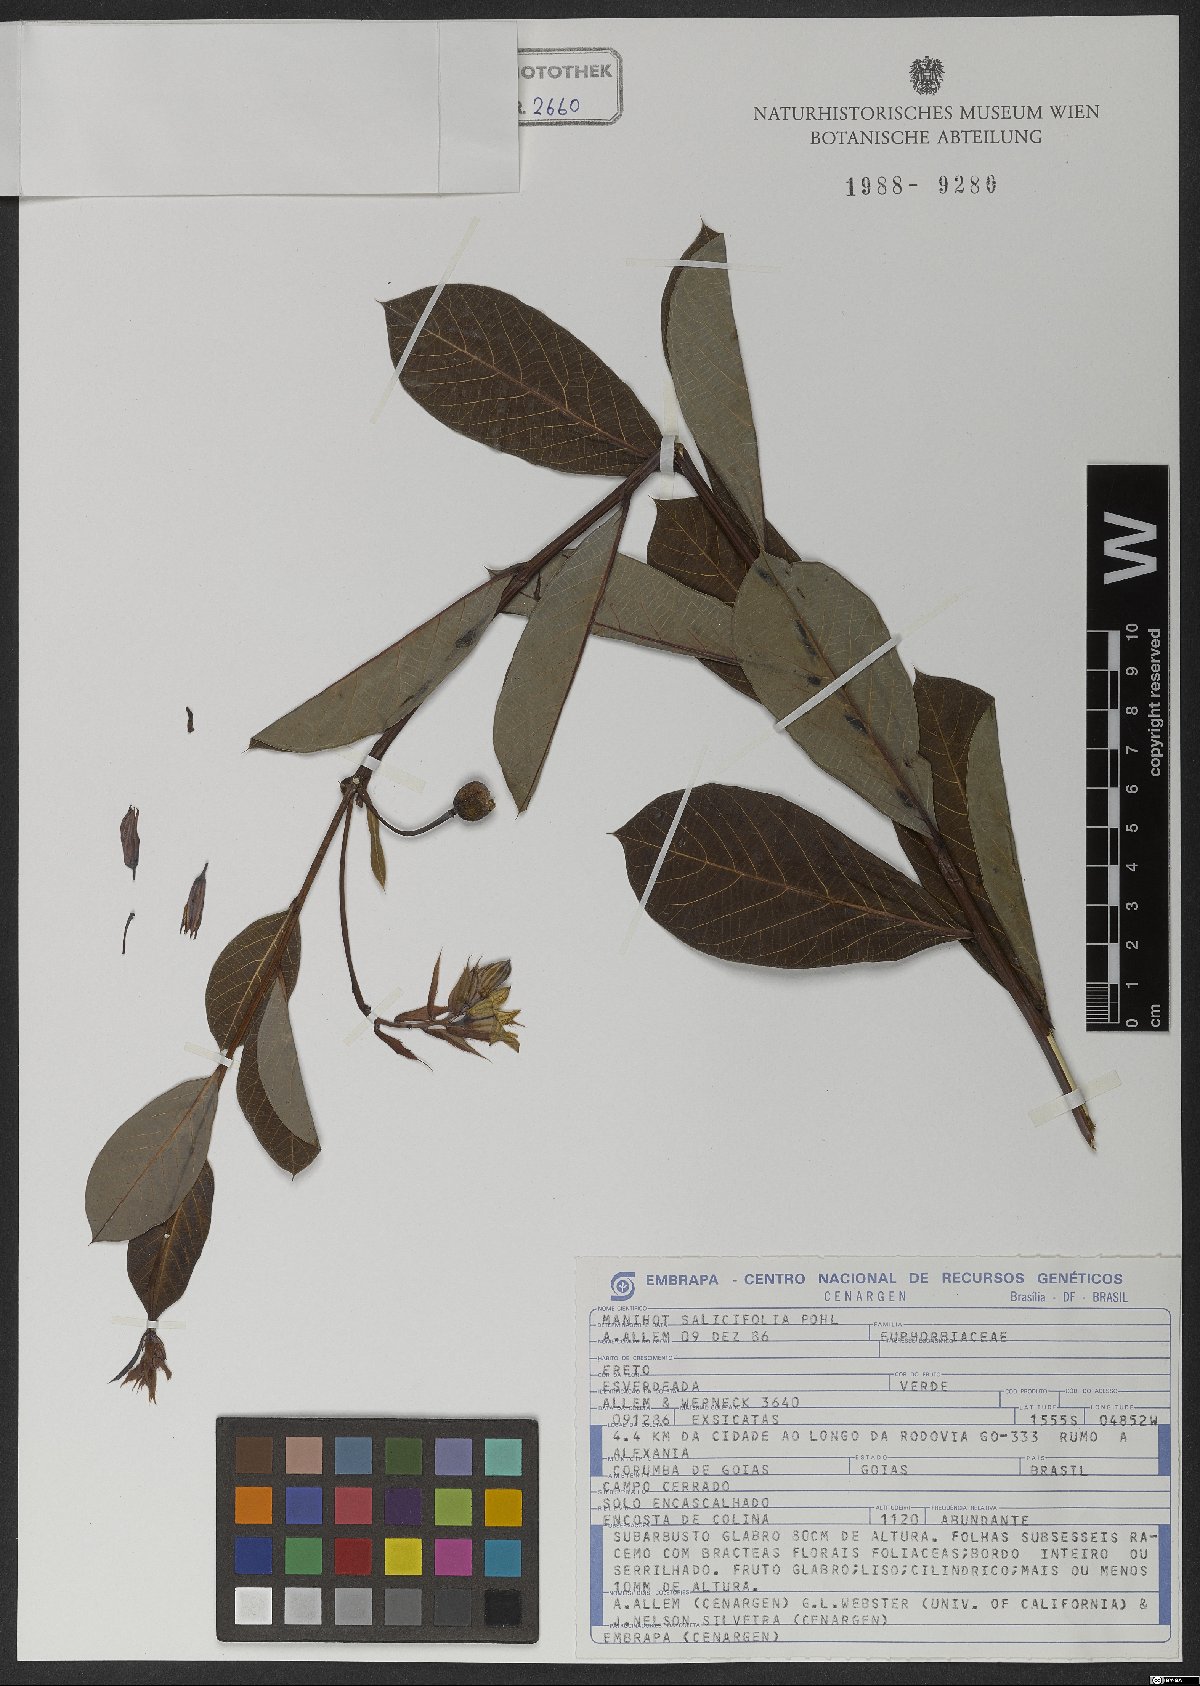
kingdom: Plantae
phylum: Tracheophyta
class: Magnoliopsida
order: Malpighiales
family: Euphorbiaceae
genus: Manihot
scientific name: Manihot salicifolia
